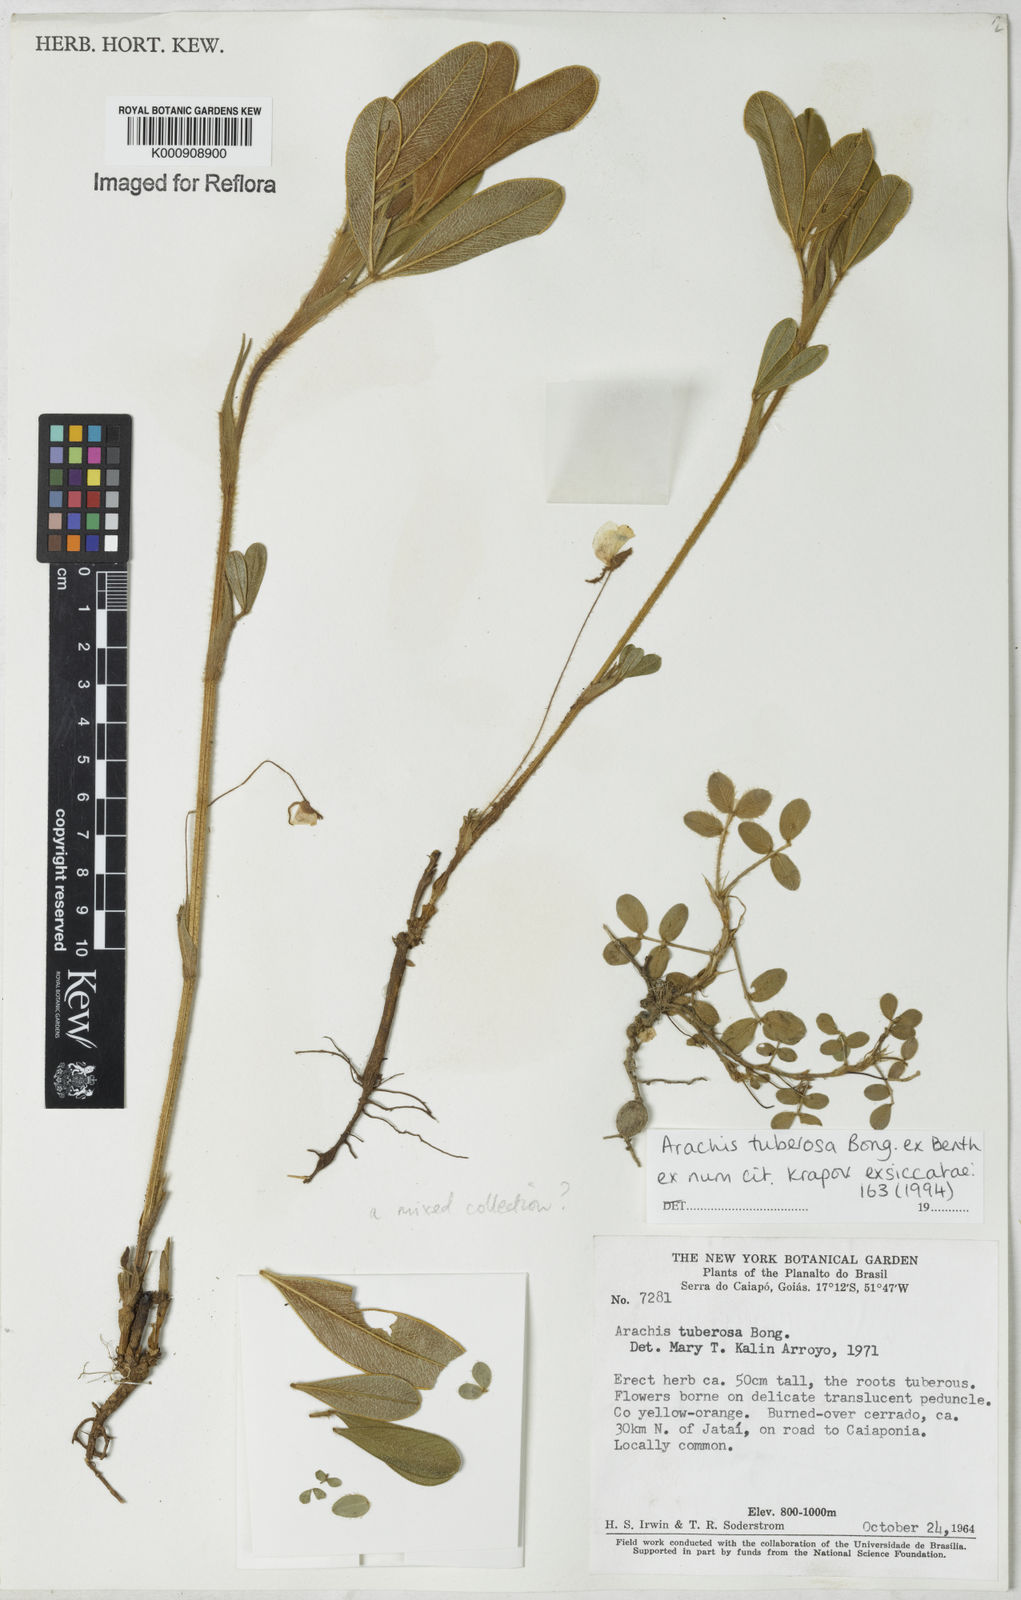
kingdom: Plantae
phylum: Tracheophyta
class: Magnoliopsida
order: Fabales
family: Fabaceae
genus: Arachis
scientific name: Arachis tuberosa
